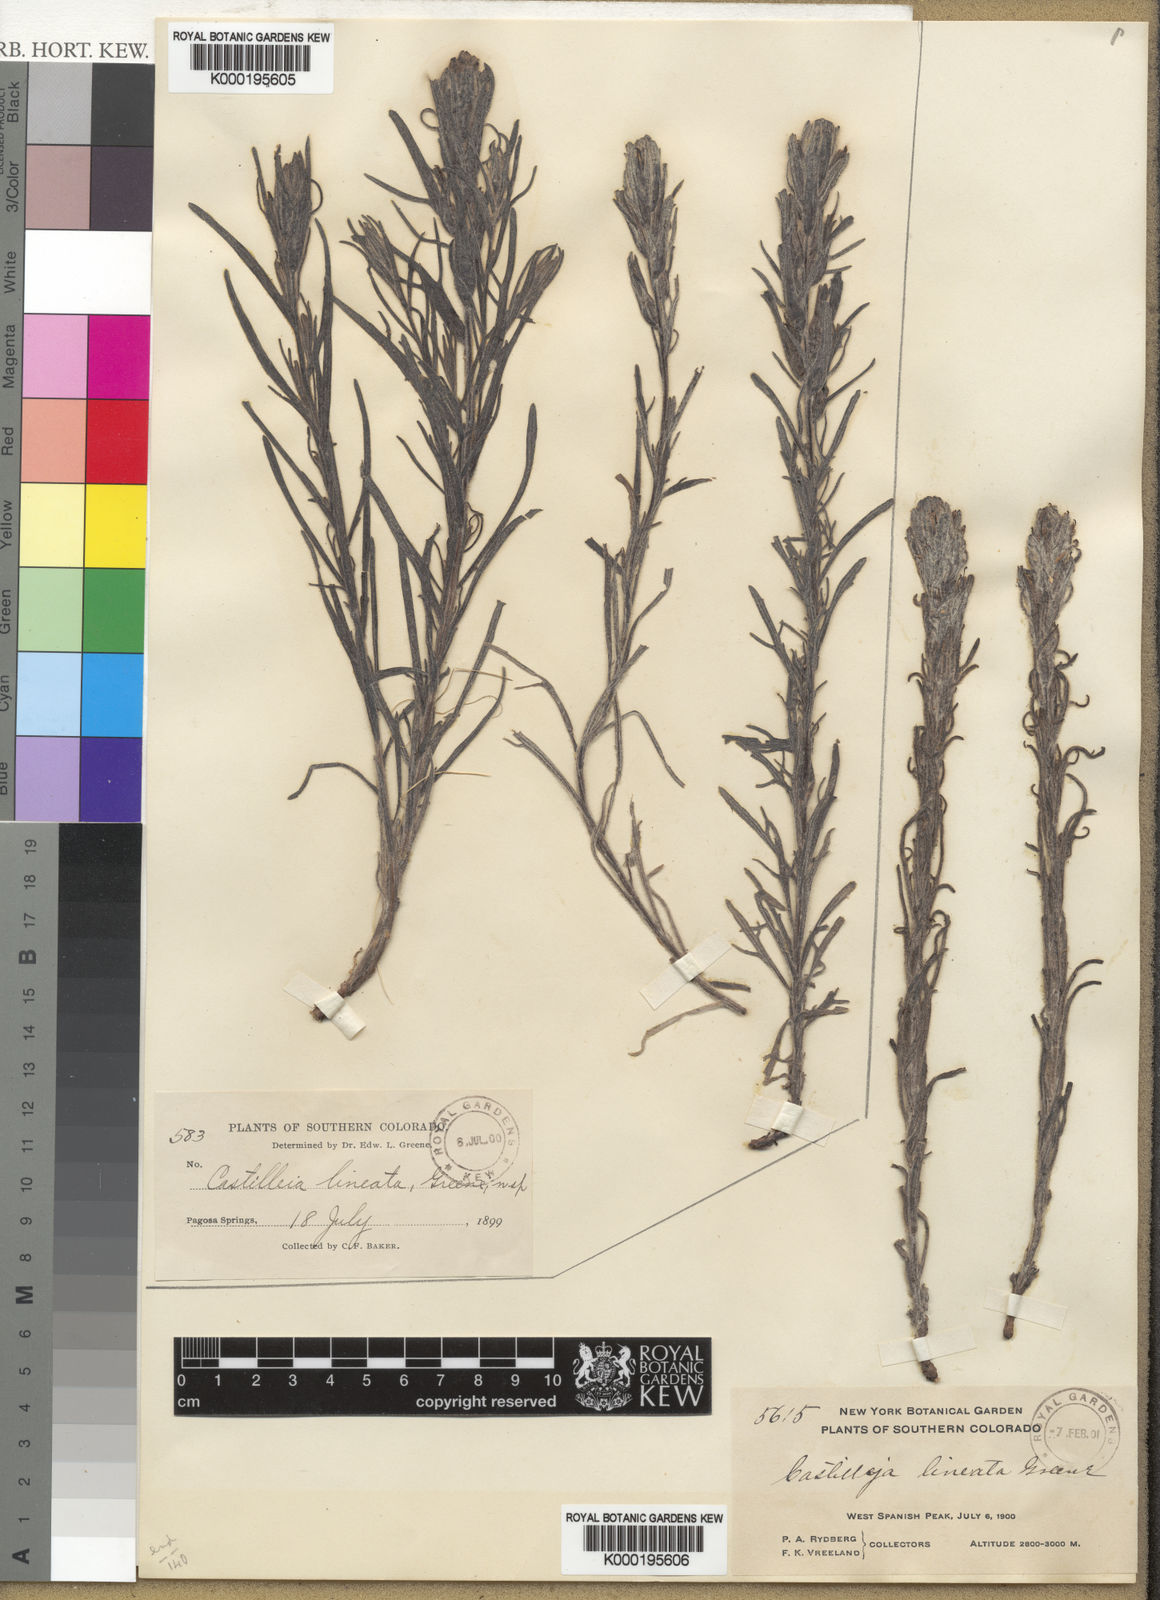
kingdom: Plantae
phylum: Tracheophyta
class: Magnoliopsida
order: Lamiales
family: Orobanchaceae
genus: Castilleja
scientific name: Castilleja lineata
